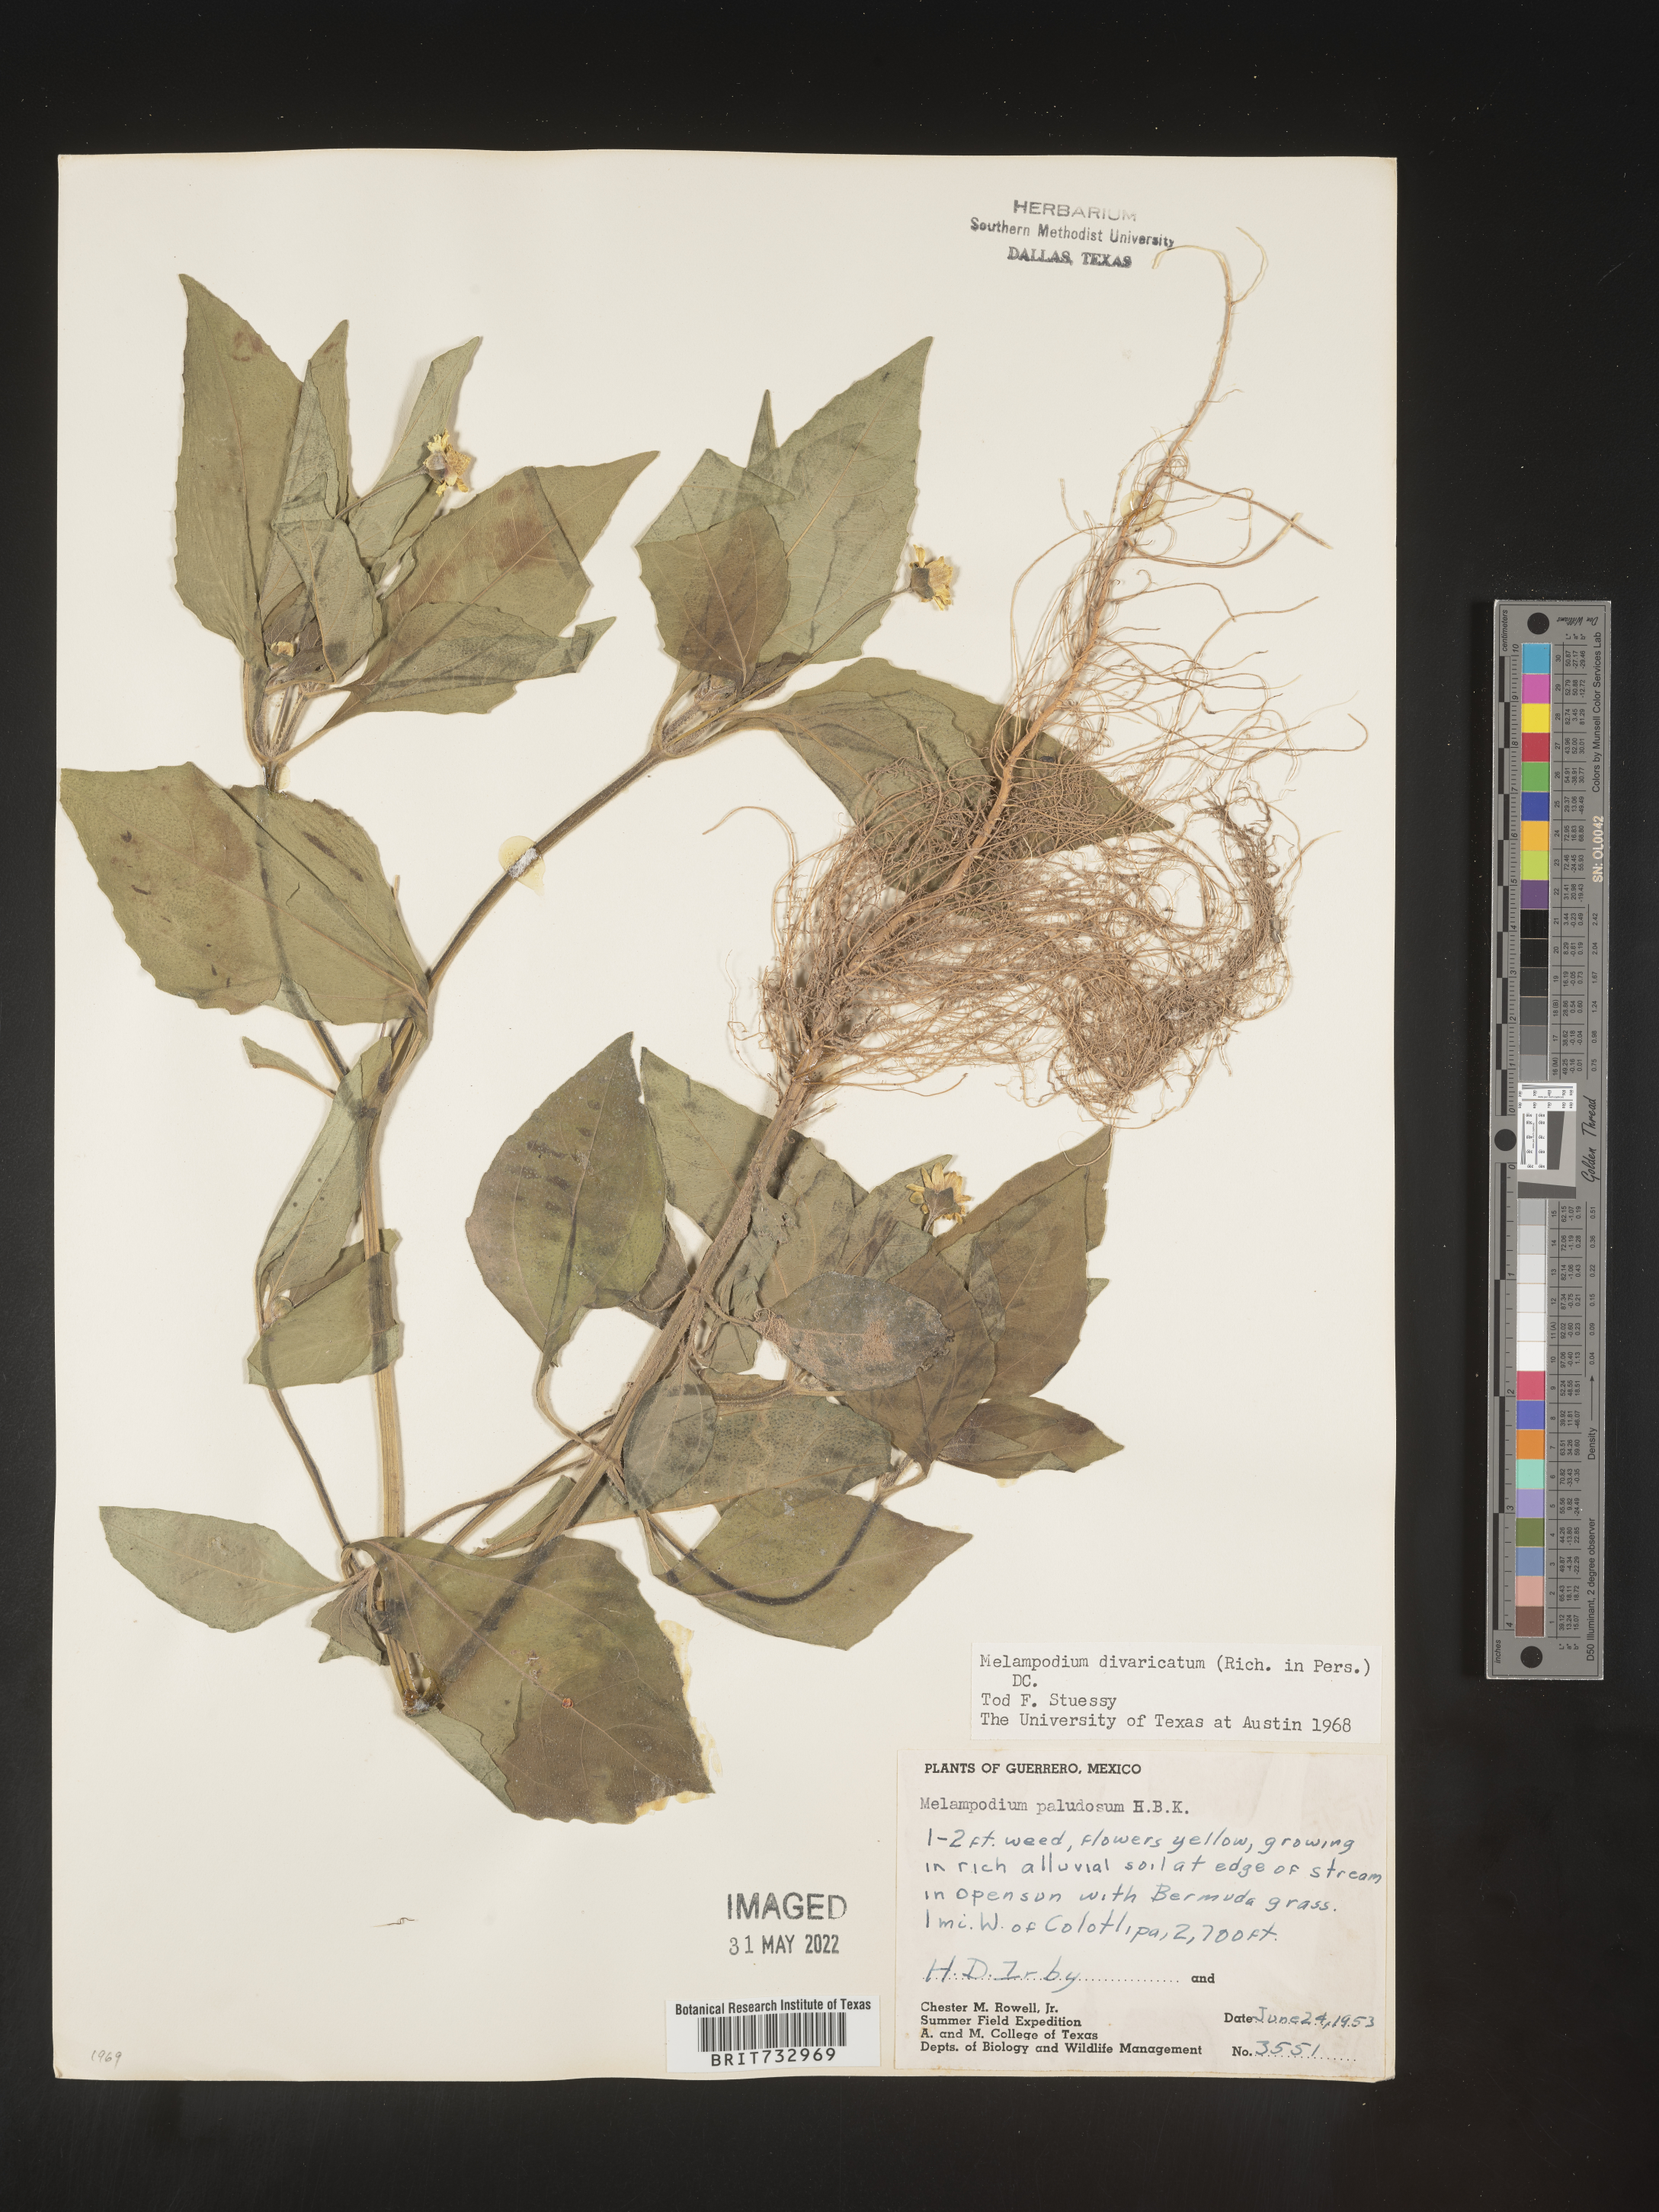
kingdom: Plantae
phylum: Tracheophyta
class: Magnoliopsida
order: Asterales
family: Asteraceae
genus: Melampodium
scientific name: Melampodium
